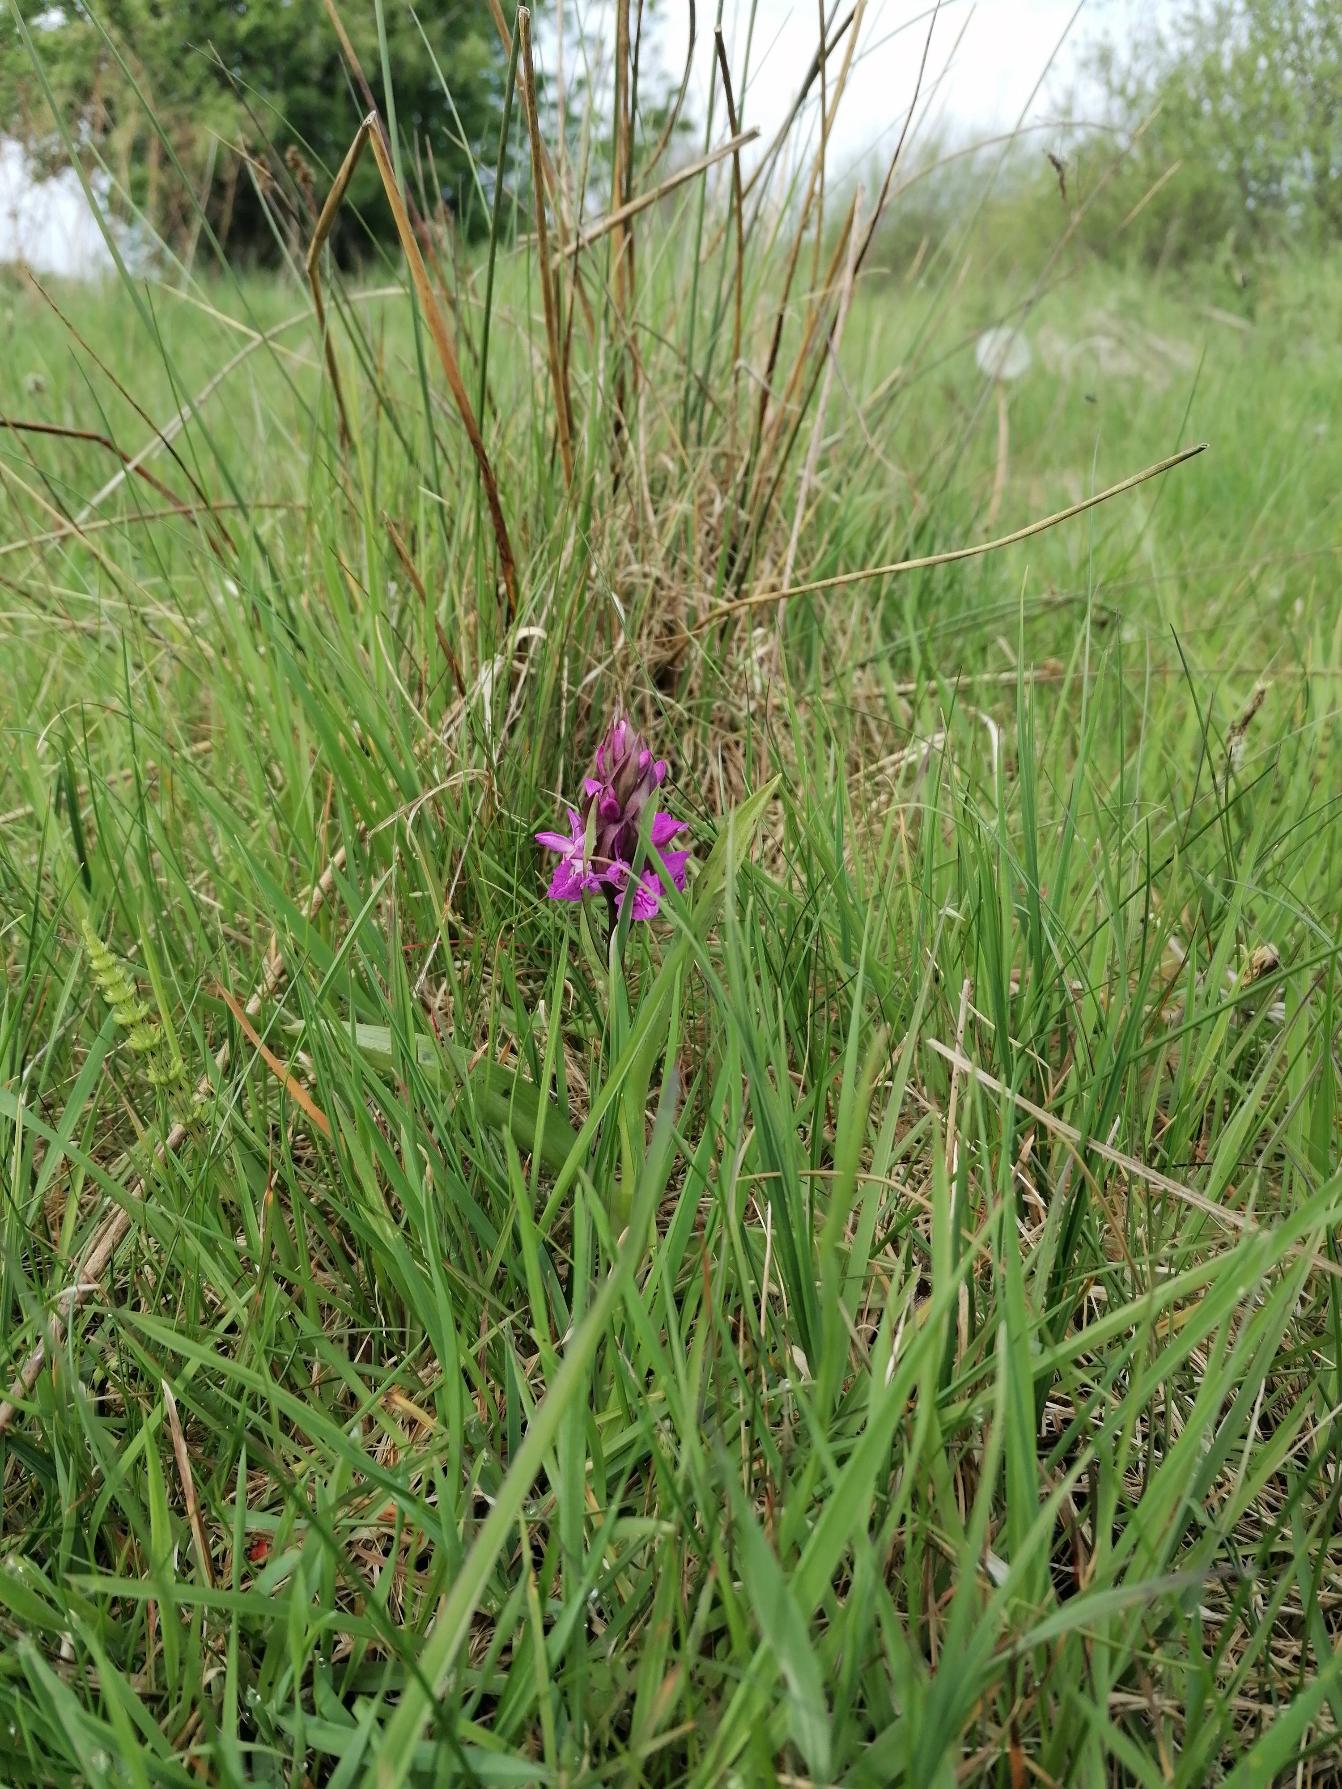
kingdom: Plantae
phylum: Tracheophyta
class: Liliopsida
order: Asparagales
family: Orchidaceae
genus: Dactylorhiza
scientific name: Dactylorhiza majalis
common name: Maj-gøgeurt
